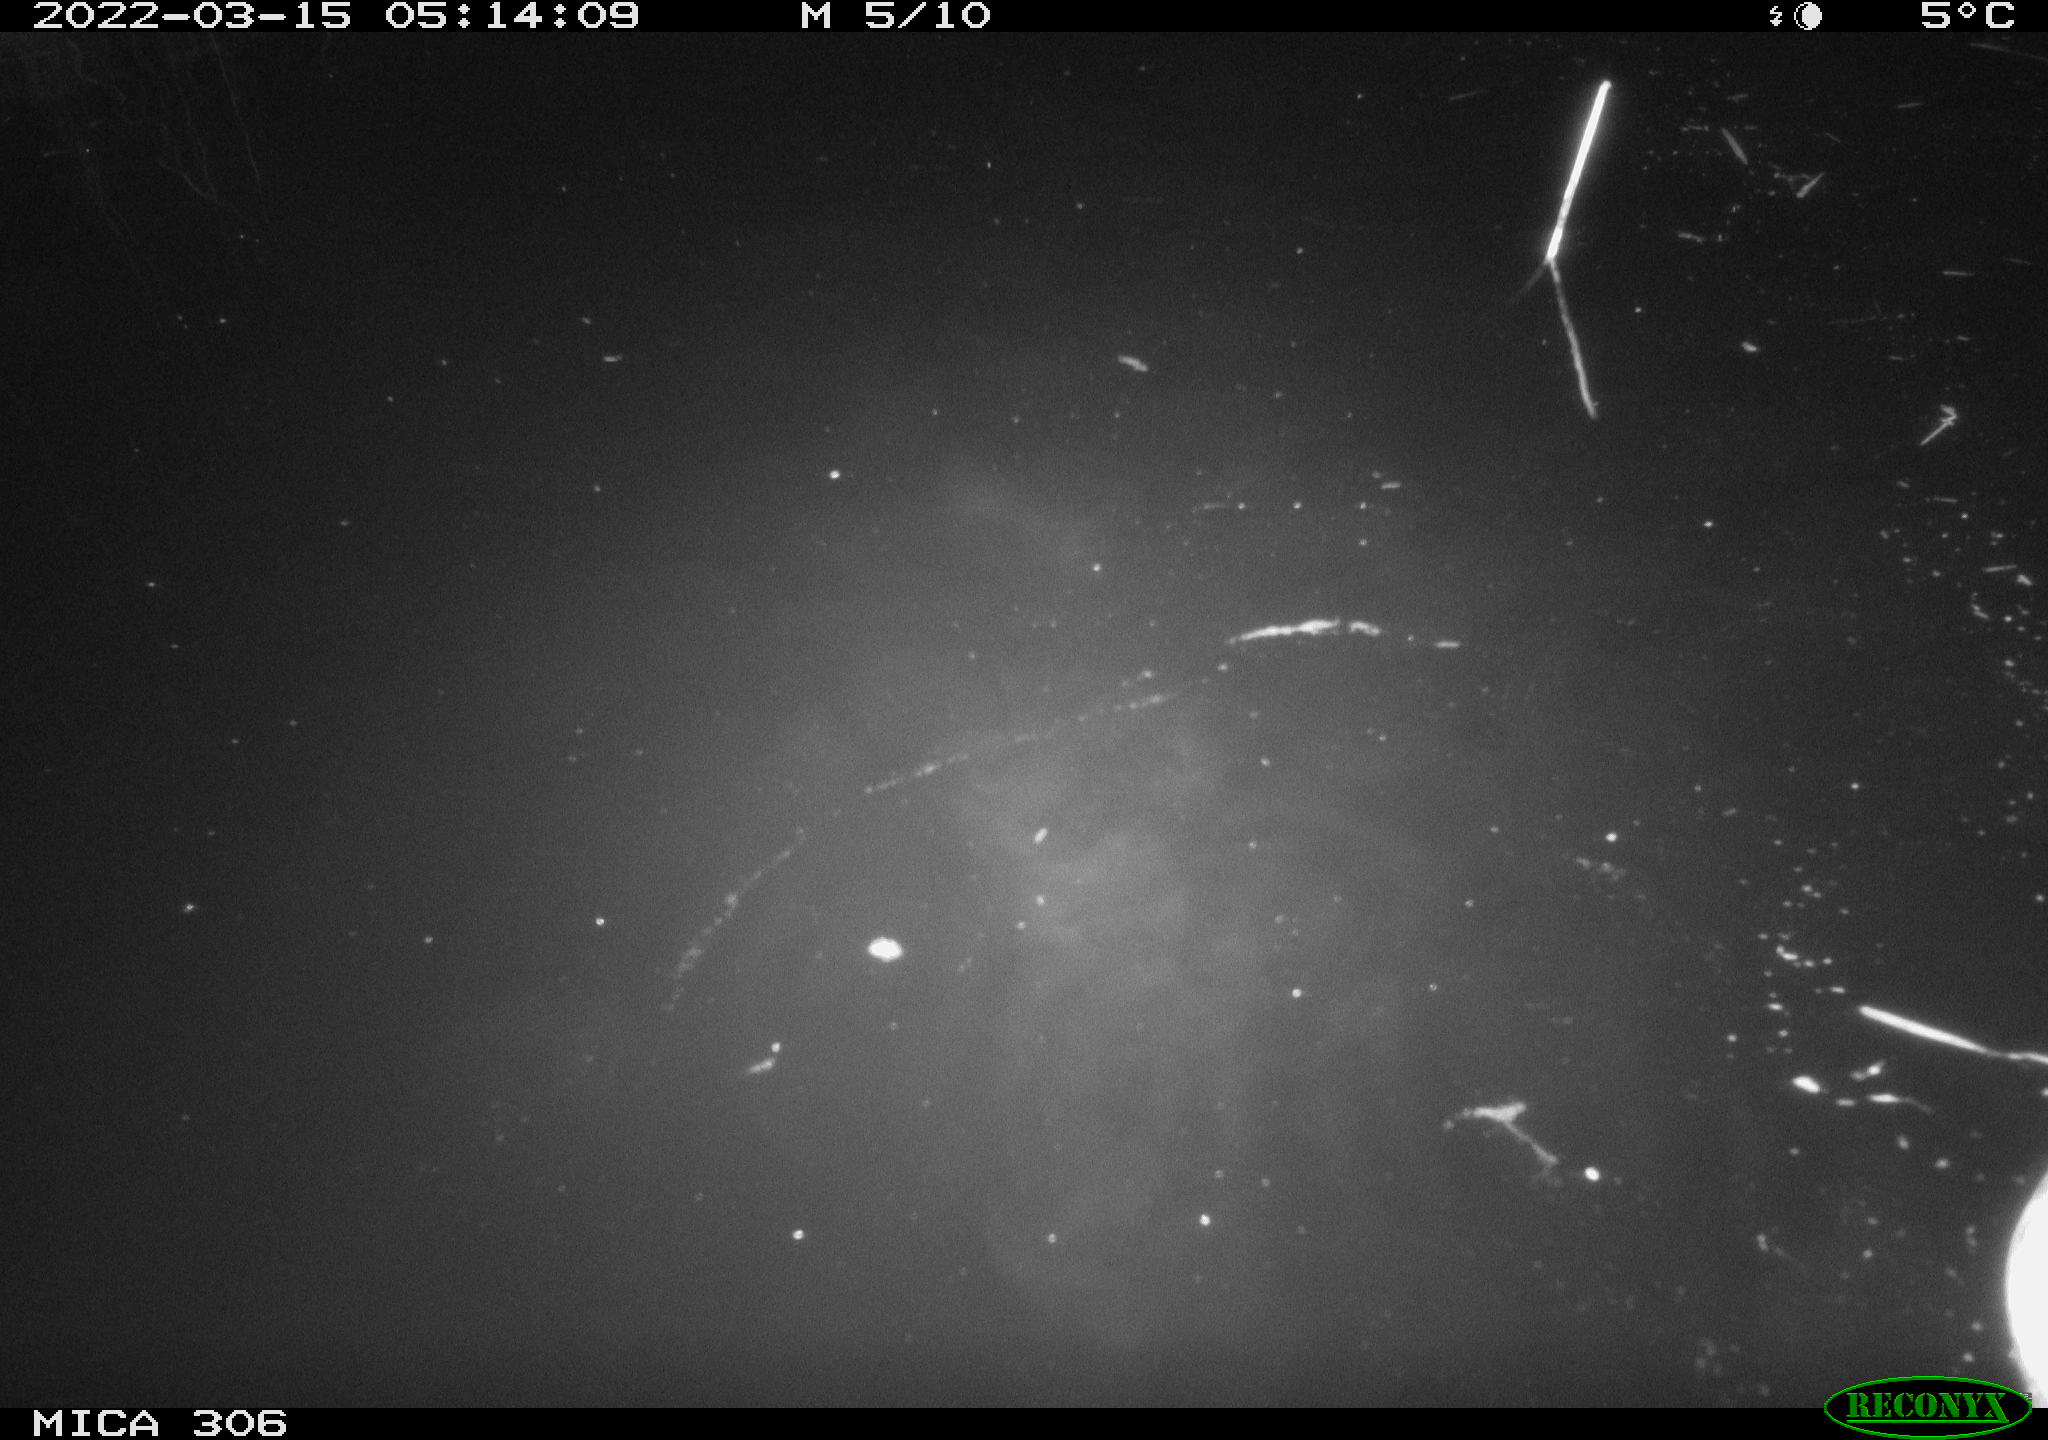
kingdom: Animalia
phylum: Chordata
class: Aves
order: Anseriformes
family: Anatidae
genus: Anas
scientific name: Anas platyrhynchos
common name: Mallard
